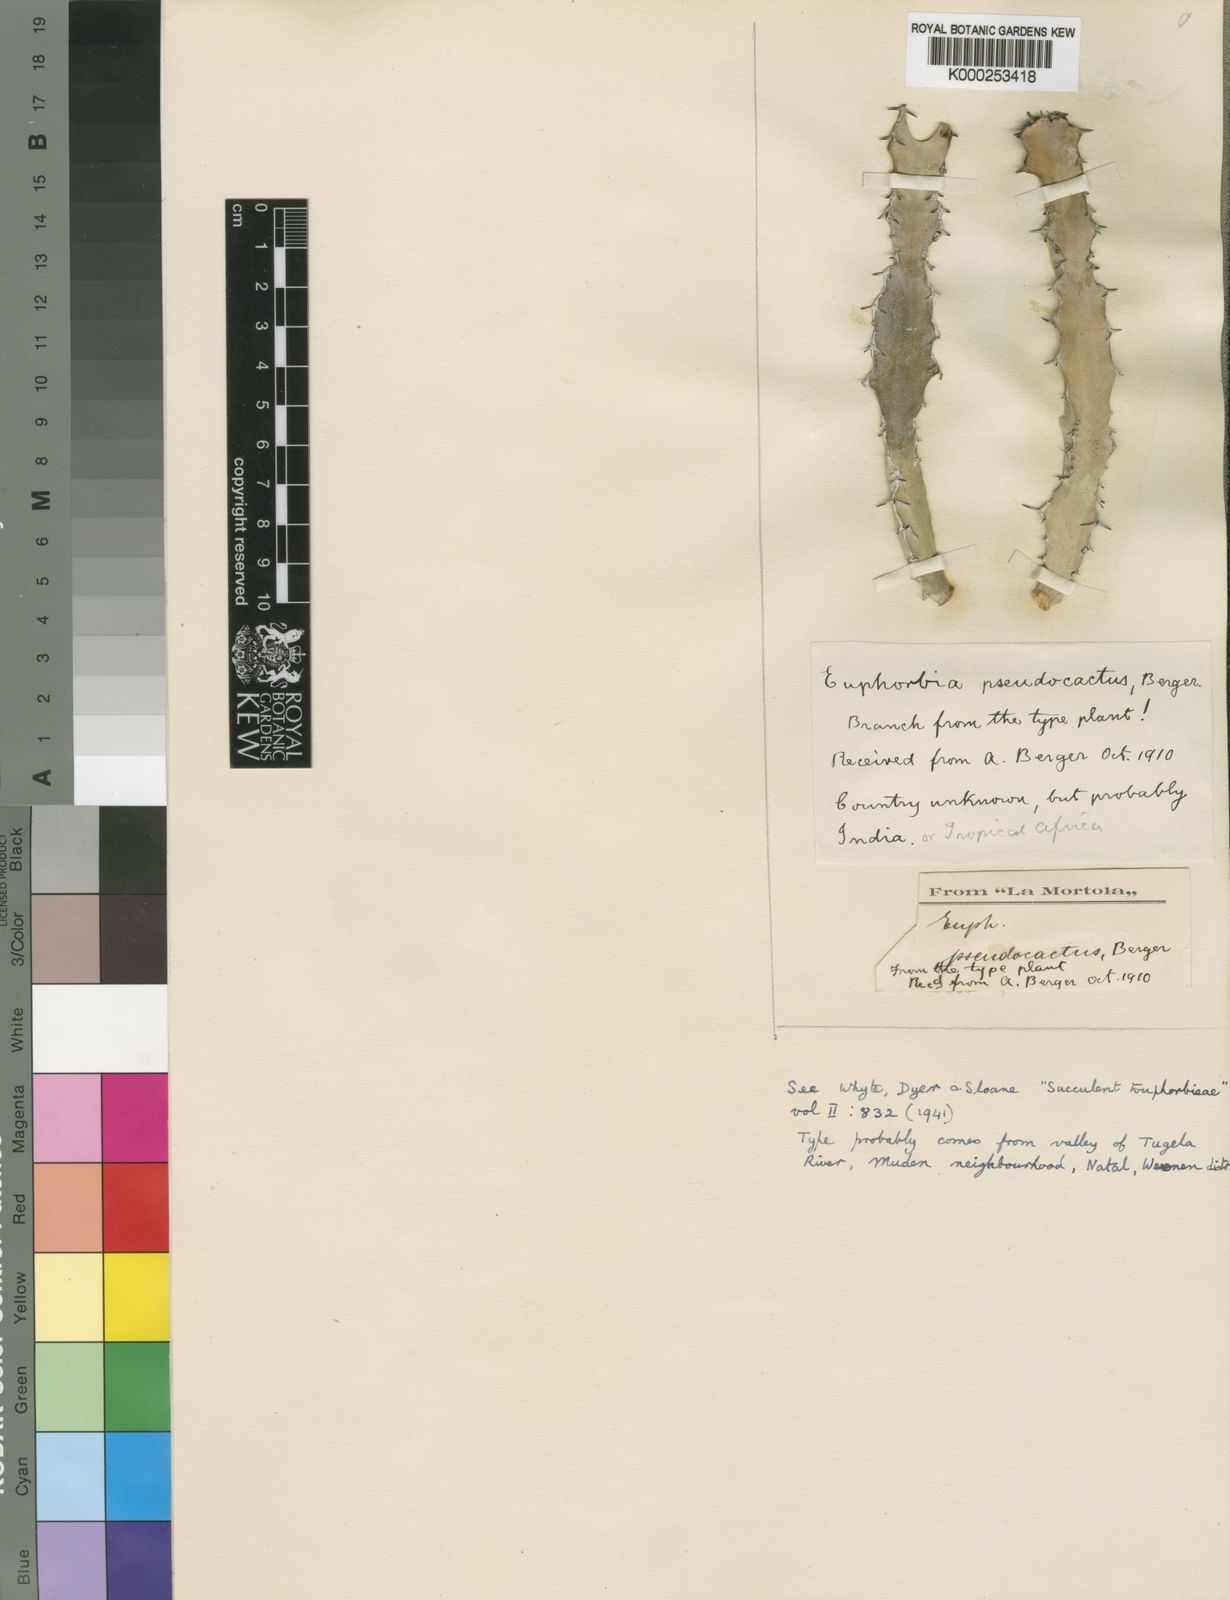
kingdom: Plantae
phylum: Tracheophyta
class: Magnoliopsida
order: Malpighiales
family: Euphorbiaceae
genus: Euphorbia
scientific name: Euphorbia pseudocactus
